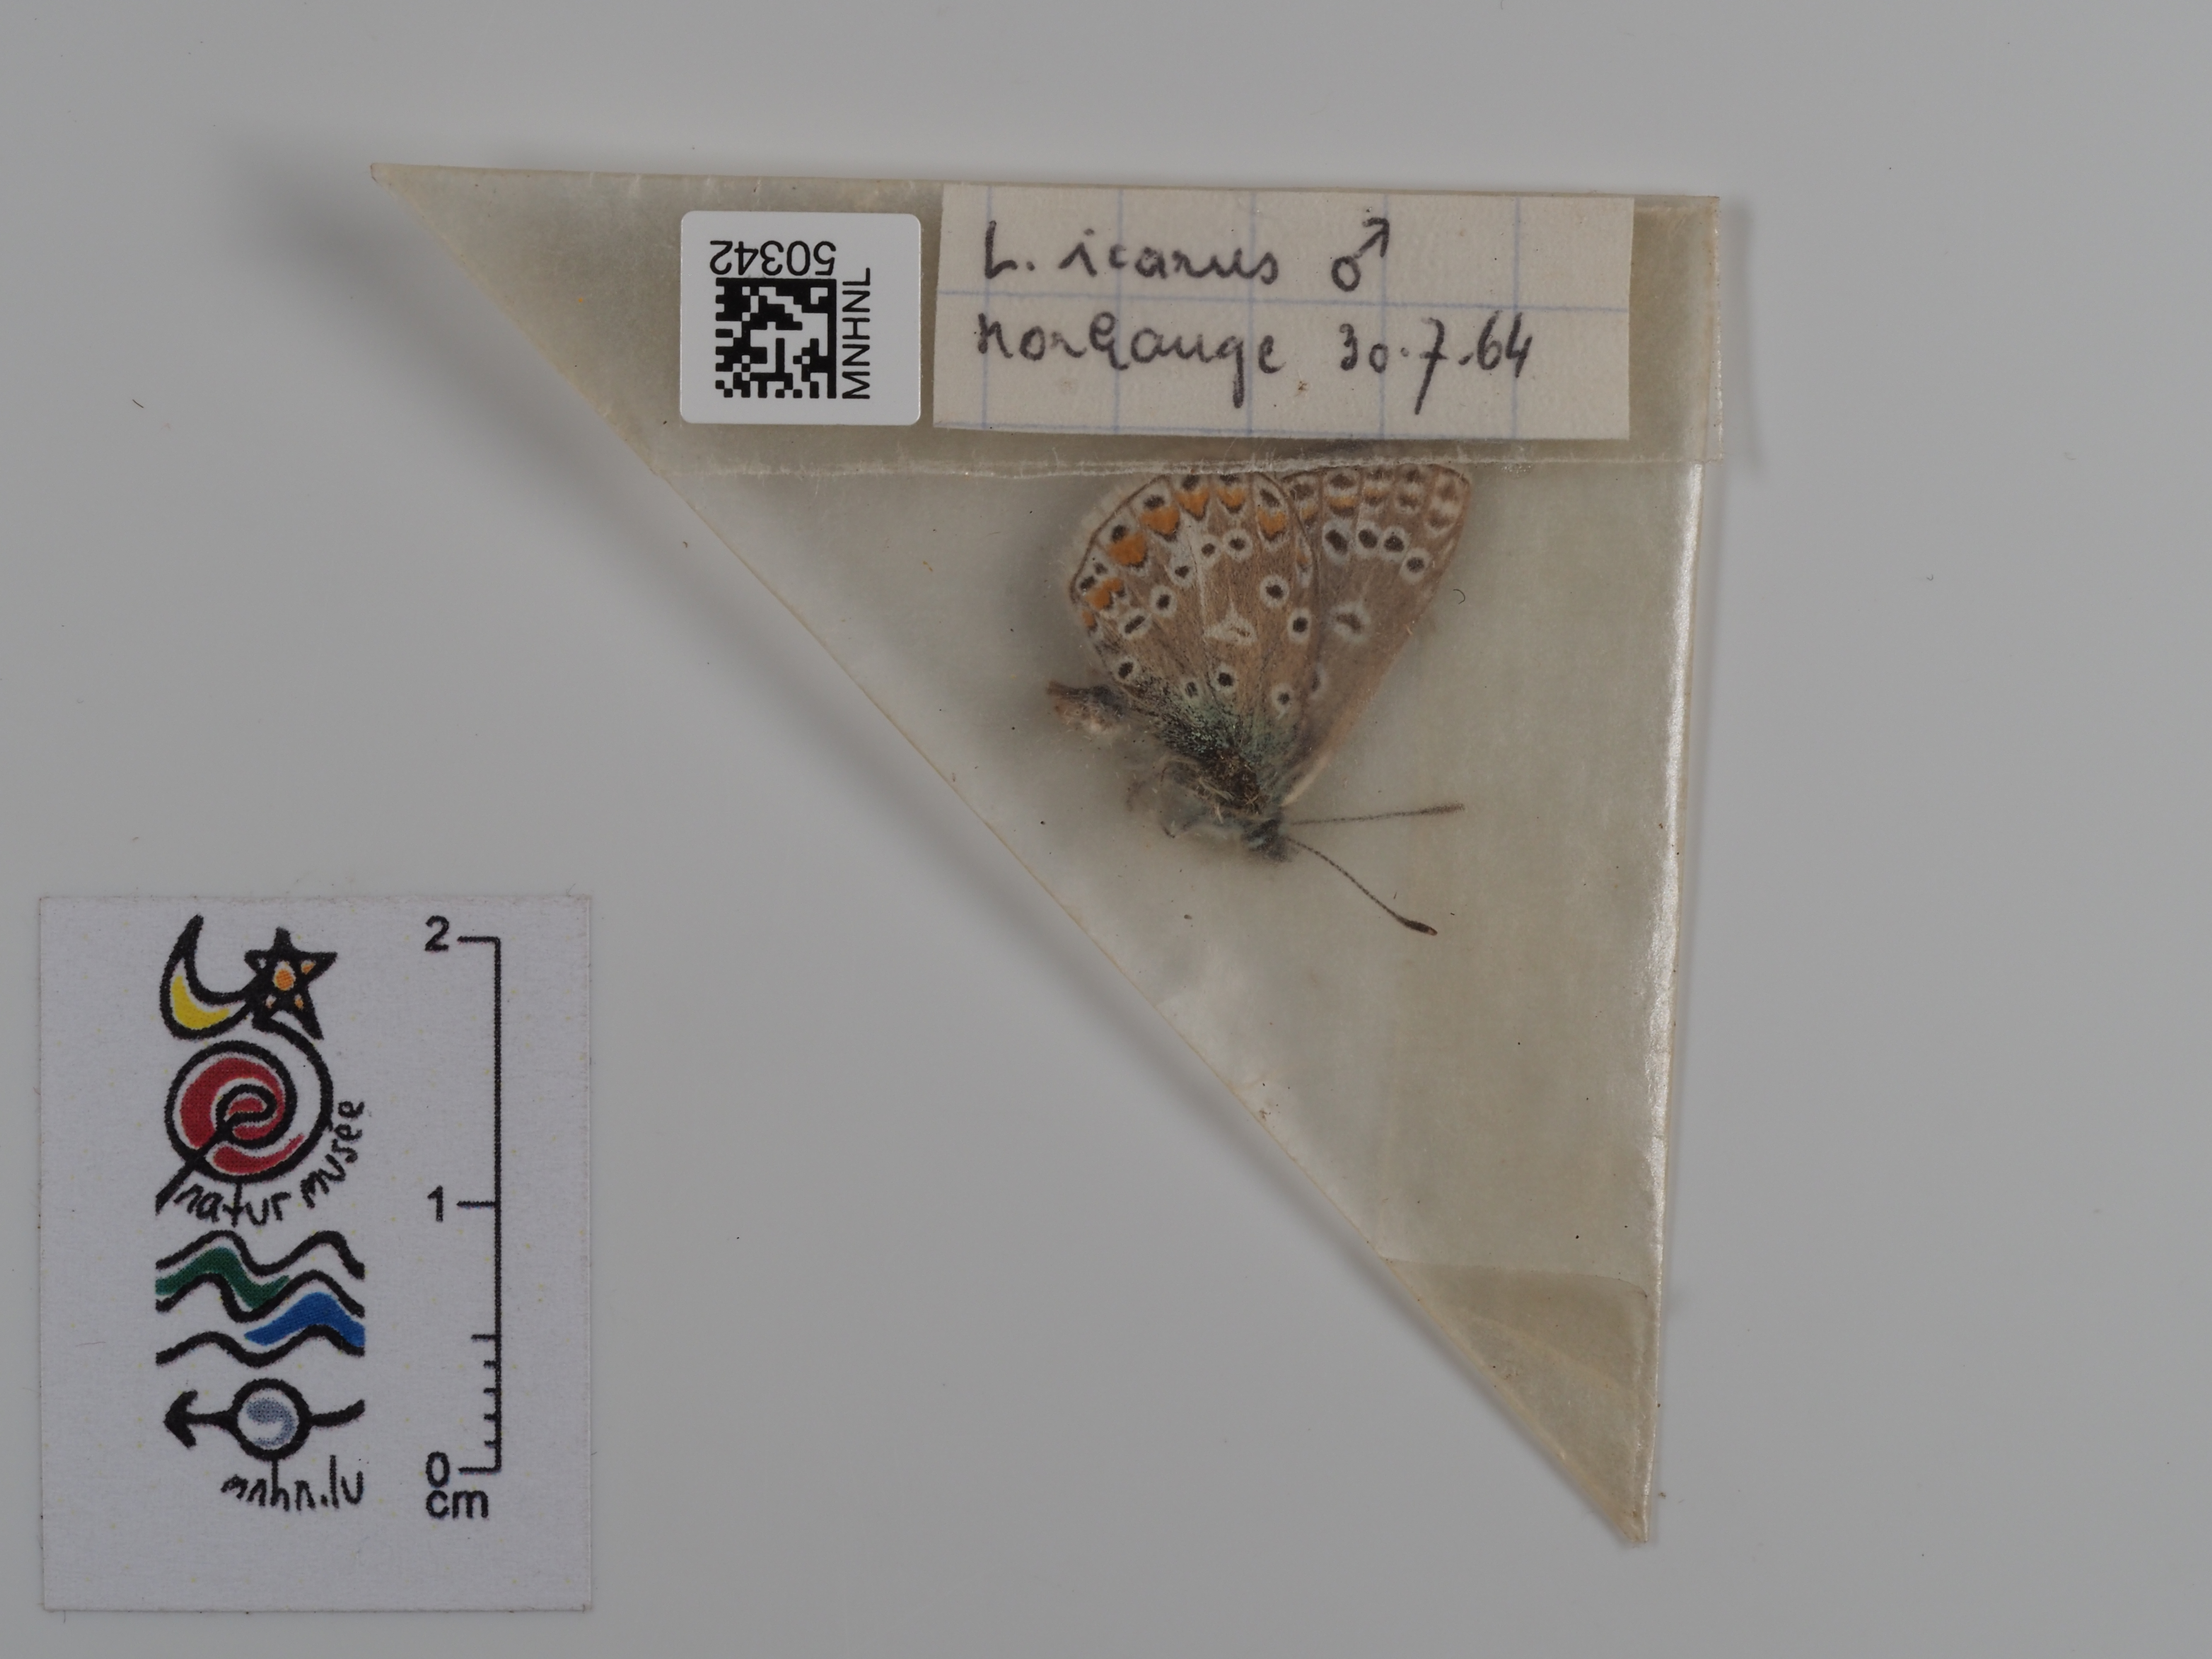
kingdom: Animalia
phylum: Arthropoda
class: Insecta
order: Lepidoptera
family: Lycaenidae
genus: Polyommatus
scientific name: Polyommatus icarus
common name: Common blue
